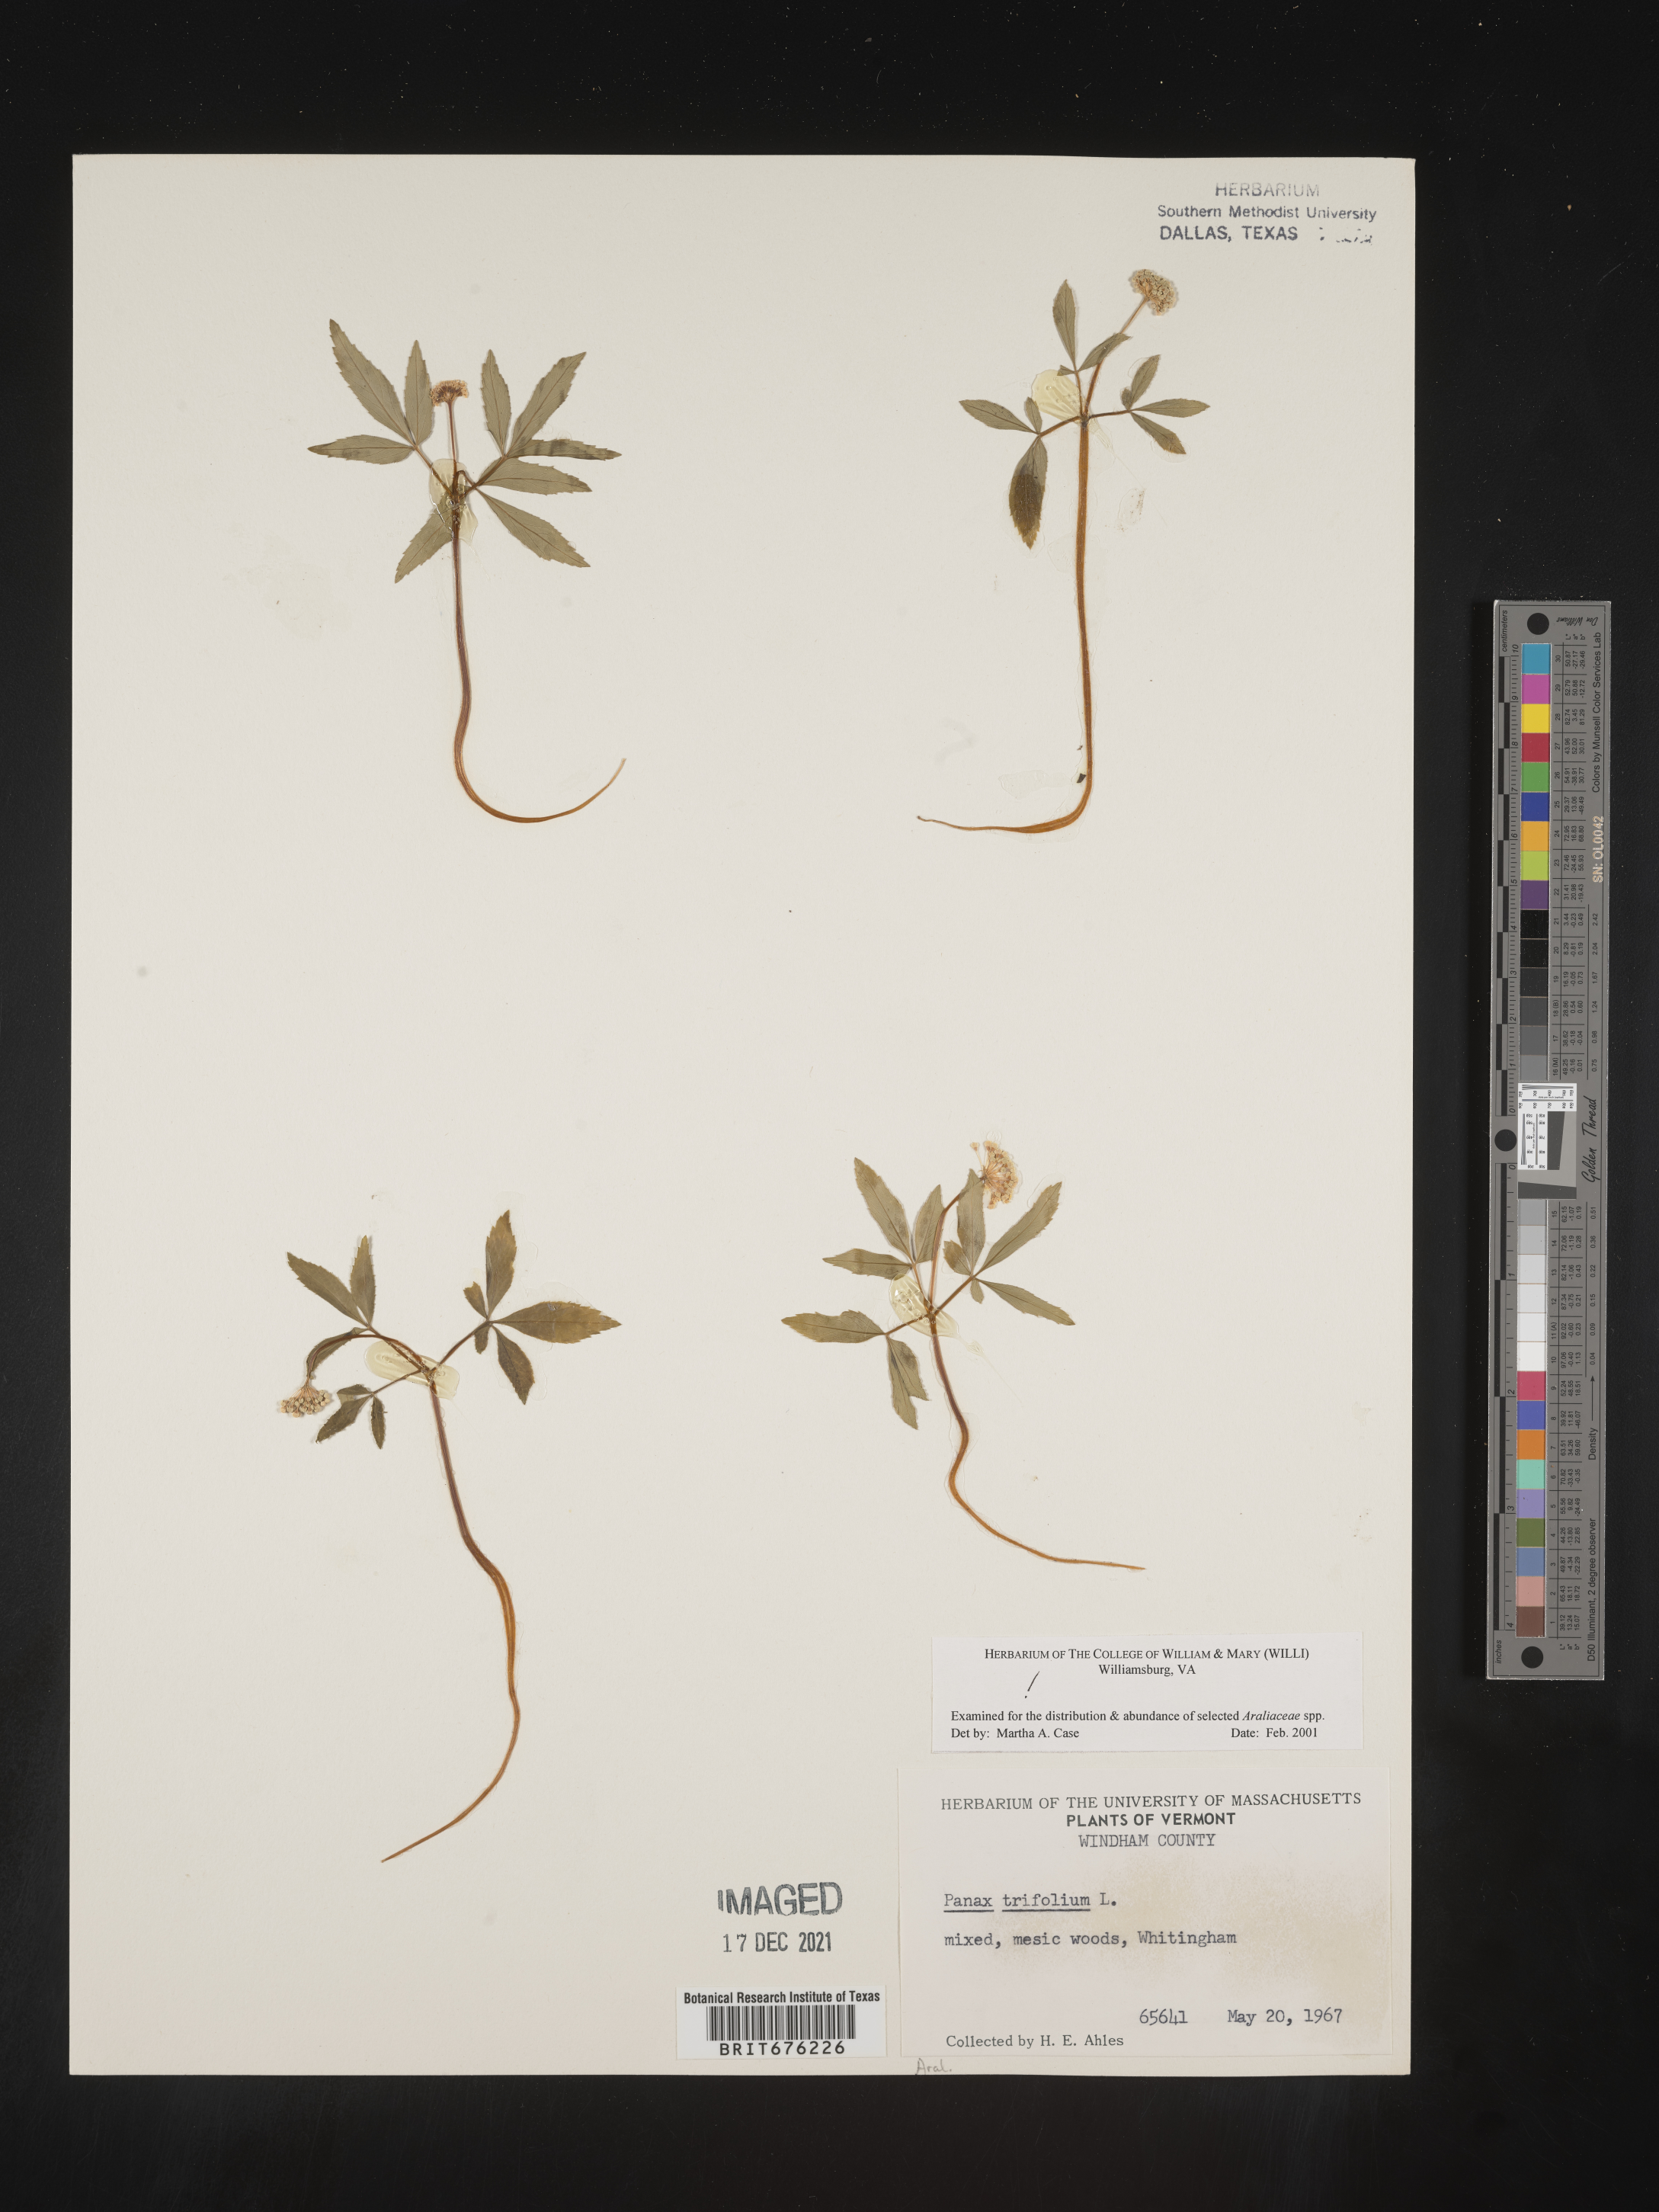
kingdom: Plantae
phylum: Tracheophyta
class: Magnoliopsida
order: Apiales
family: Araliaceae
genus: Panax
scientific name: Panax trifolius
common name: Dwarf ginseng
